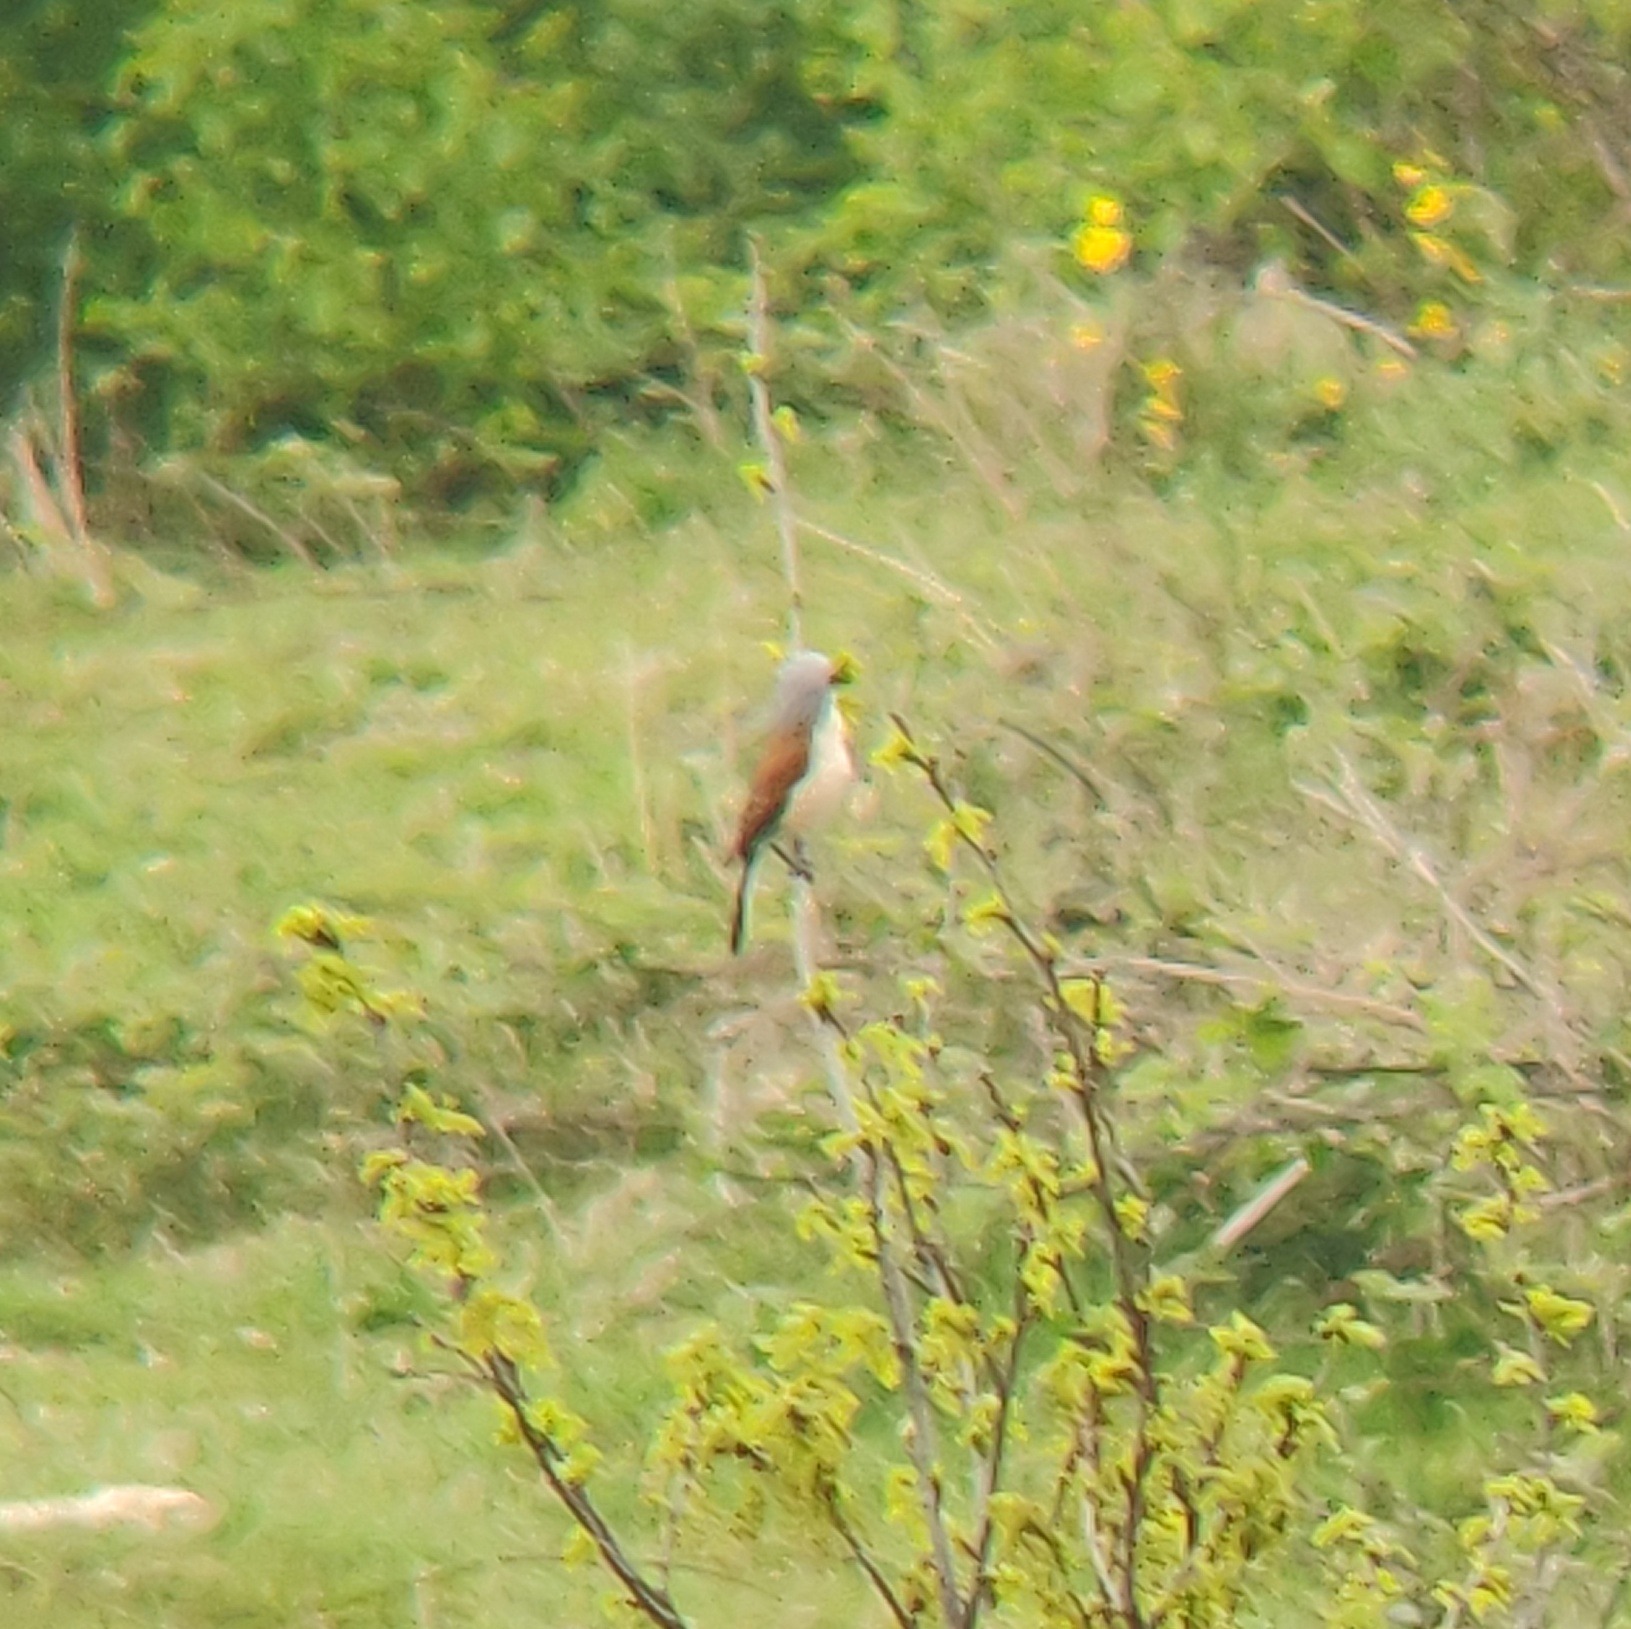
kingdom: Animalia
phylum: Chordata
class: Aves
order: Passeriformes
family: Laniidae
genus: Lanius
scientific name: Lanius collurio
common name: Rødrygget tornskade
